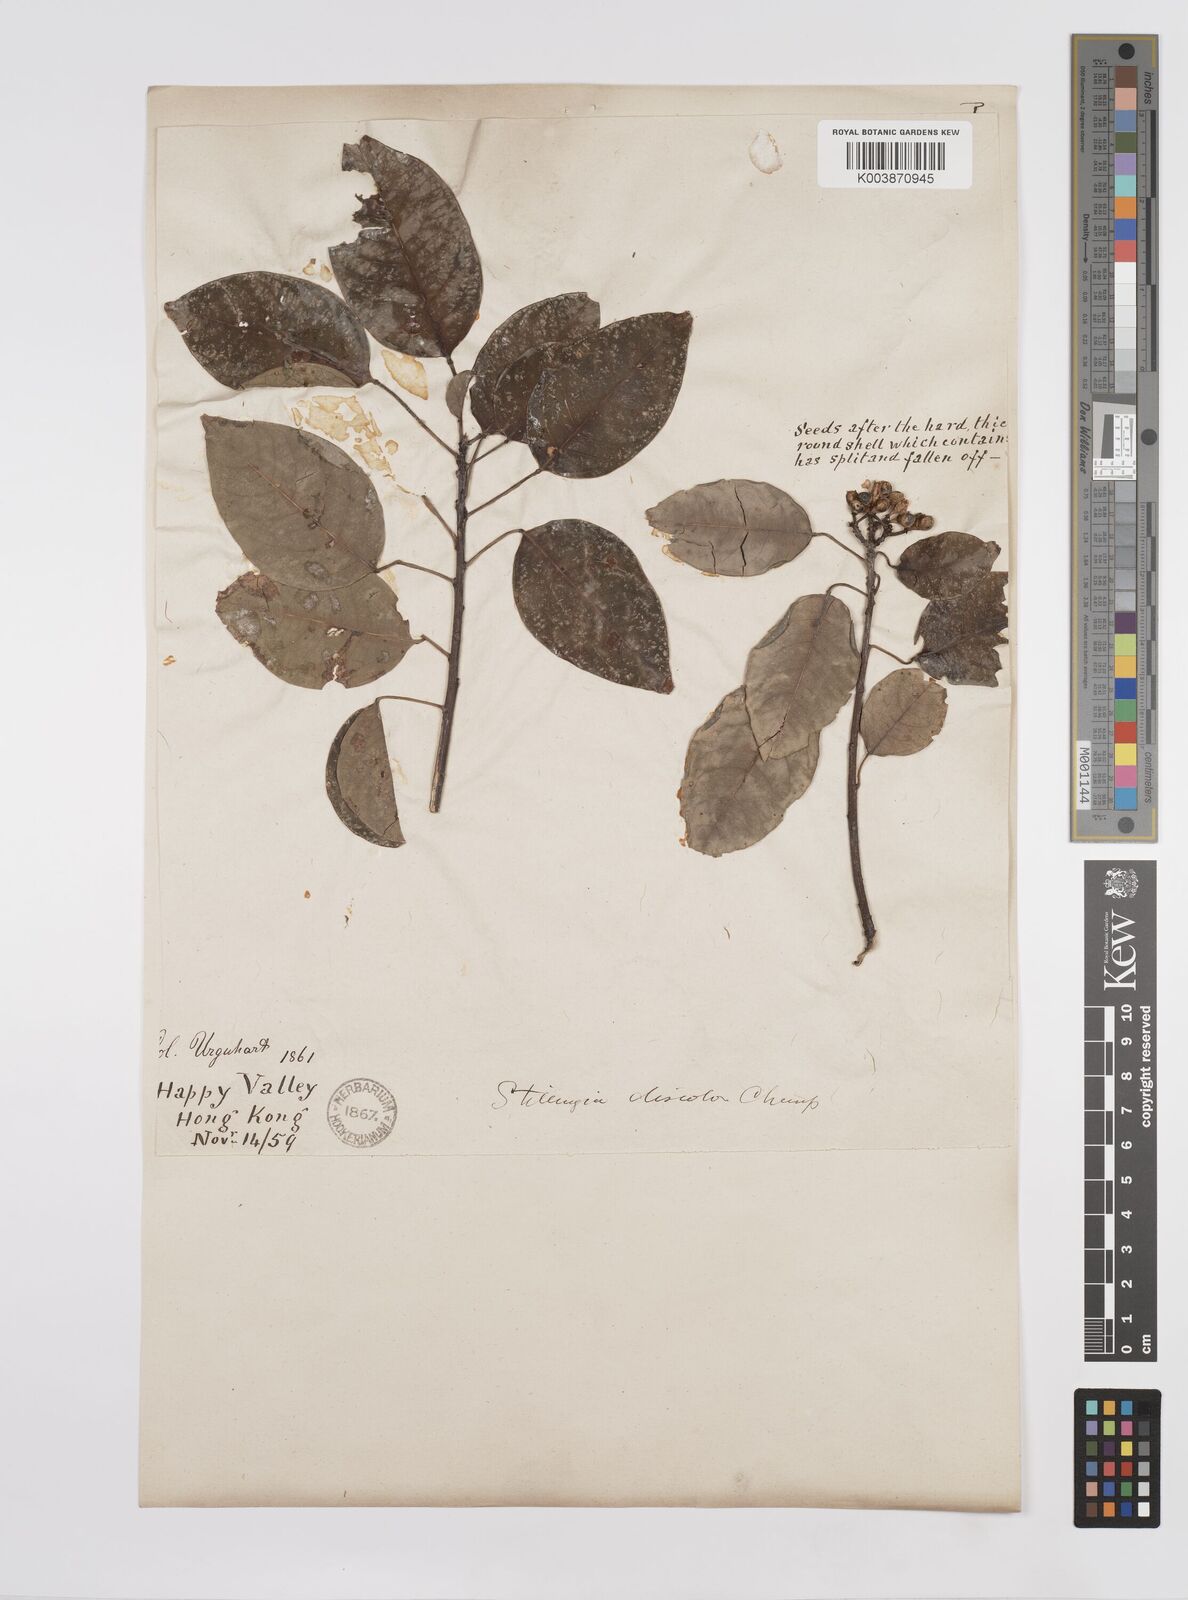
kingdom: Plantae
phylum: Tracheophyta
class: Magnoliopsida
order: Malpighiales
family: Euphorbiaceae
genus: Triadica
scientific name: Triadica cochinchinensis
